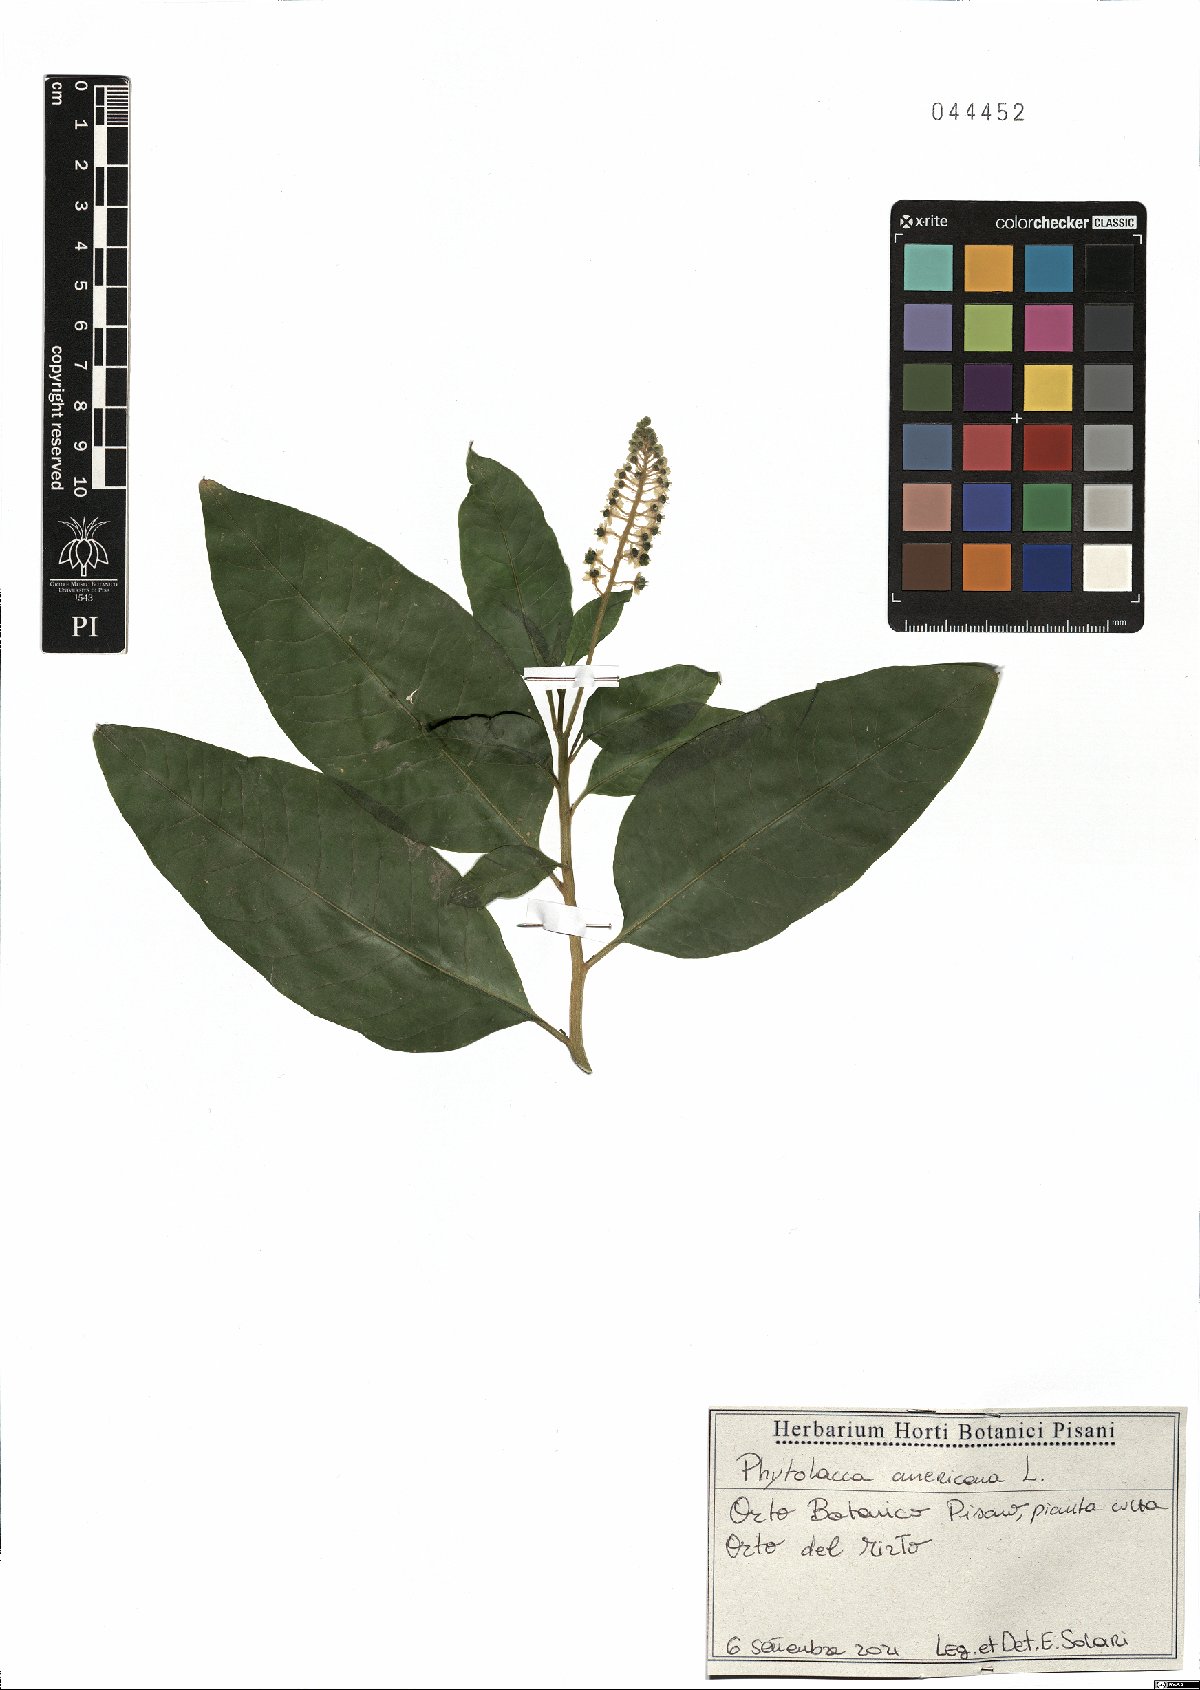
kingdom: Plantae
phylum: Tracheophyta
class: Magnoliopsida
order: Caryophyllales
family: Phytolaccaceae
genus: Phytolacca
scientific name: Phytolacca americana
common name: American pokeweed
